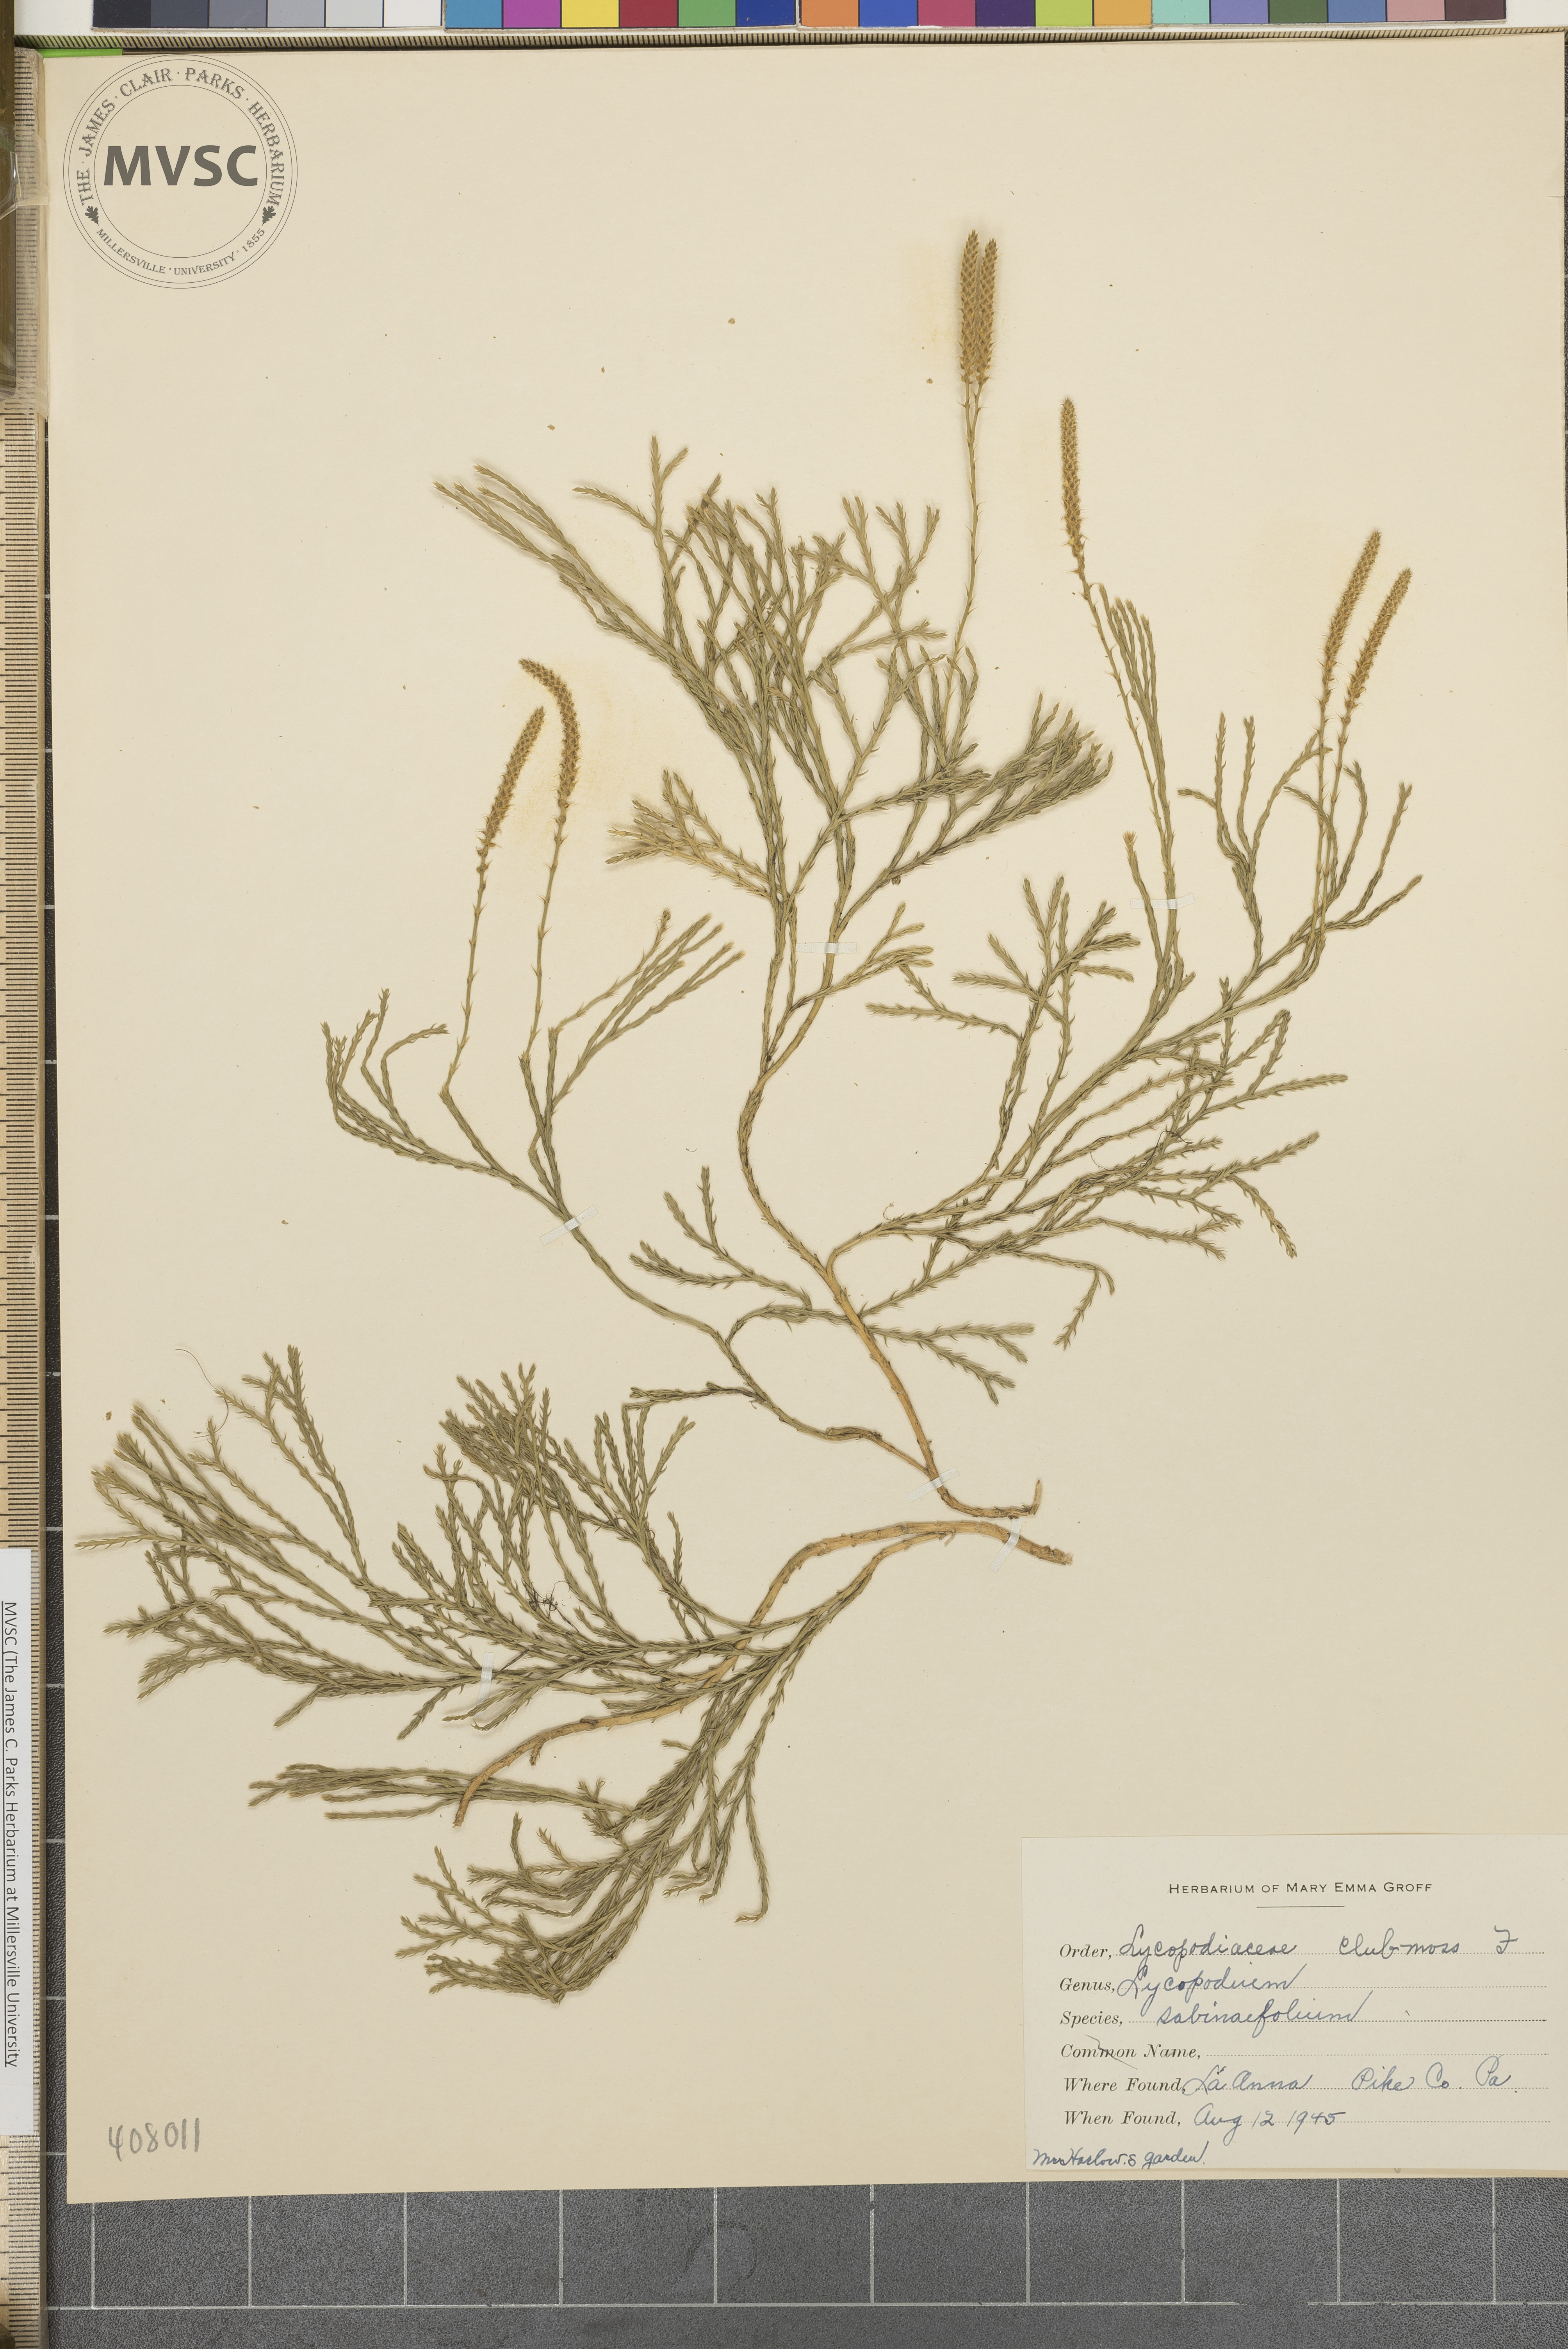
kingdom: Plantae
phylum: Tracheophyta
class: Lycopodiopsida
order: Lycopodiales
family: Lycopodiaceae
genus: Diphasiastrum
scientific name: Diphasiastrum sabinifolium
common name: Juniper clubmoss
